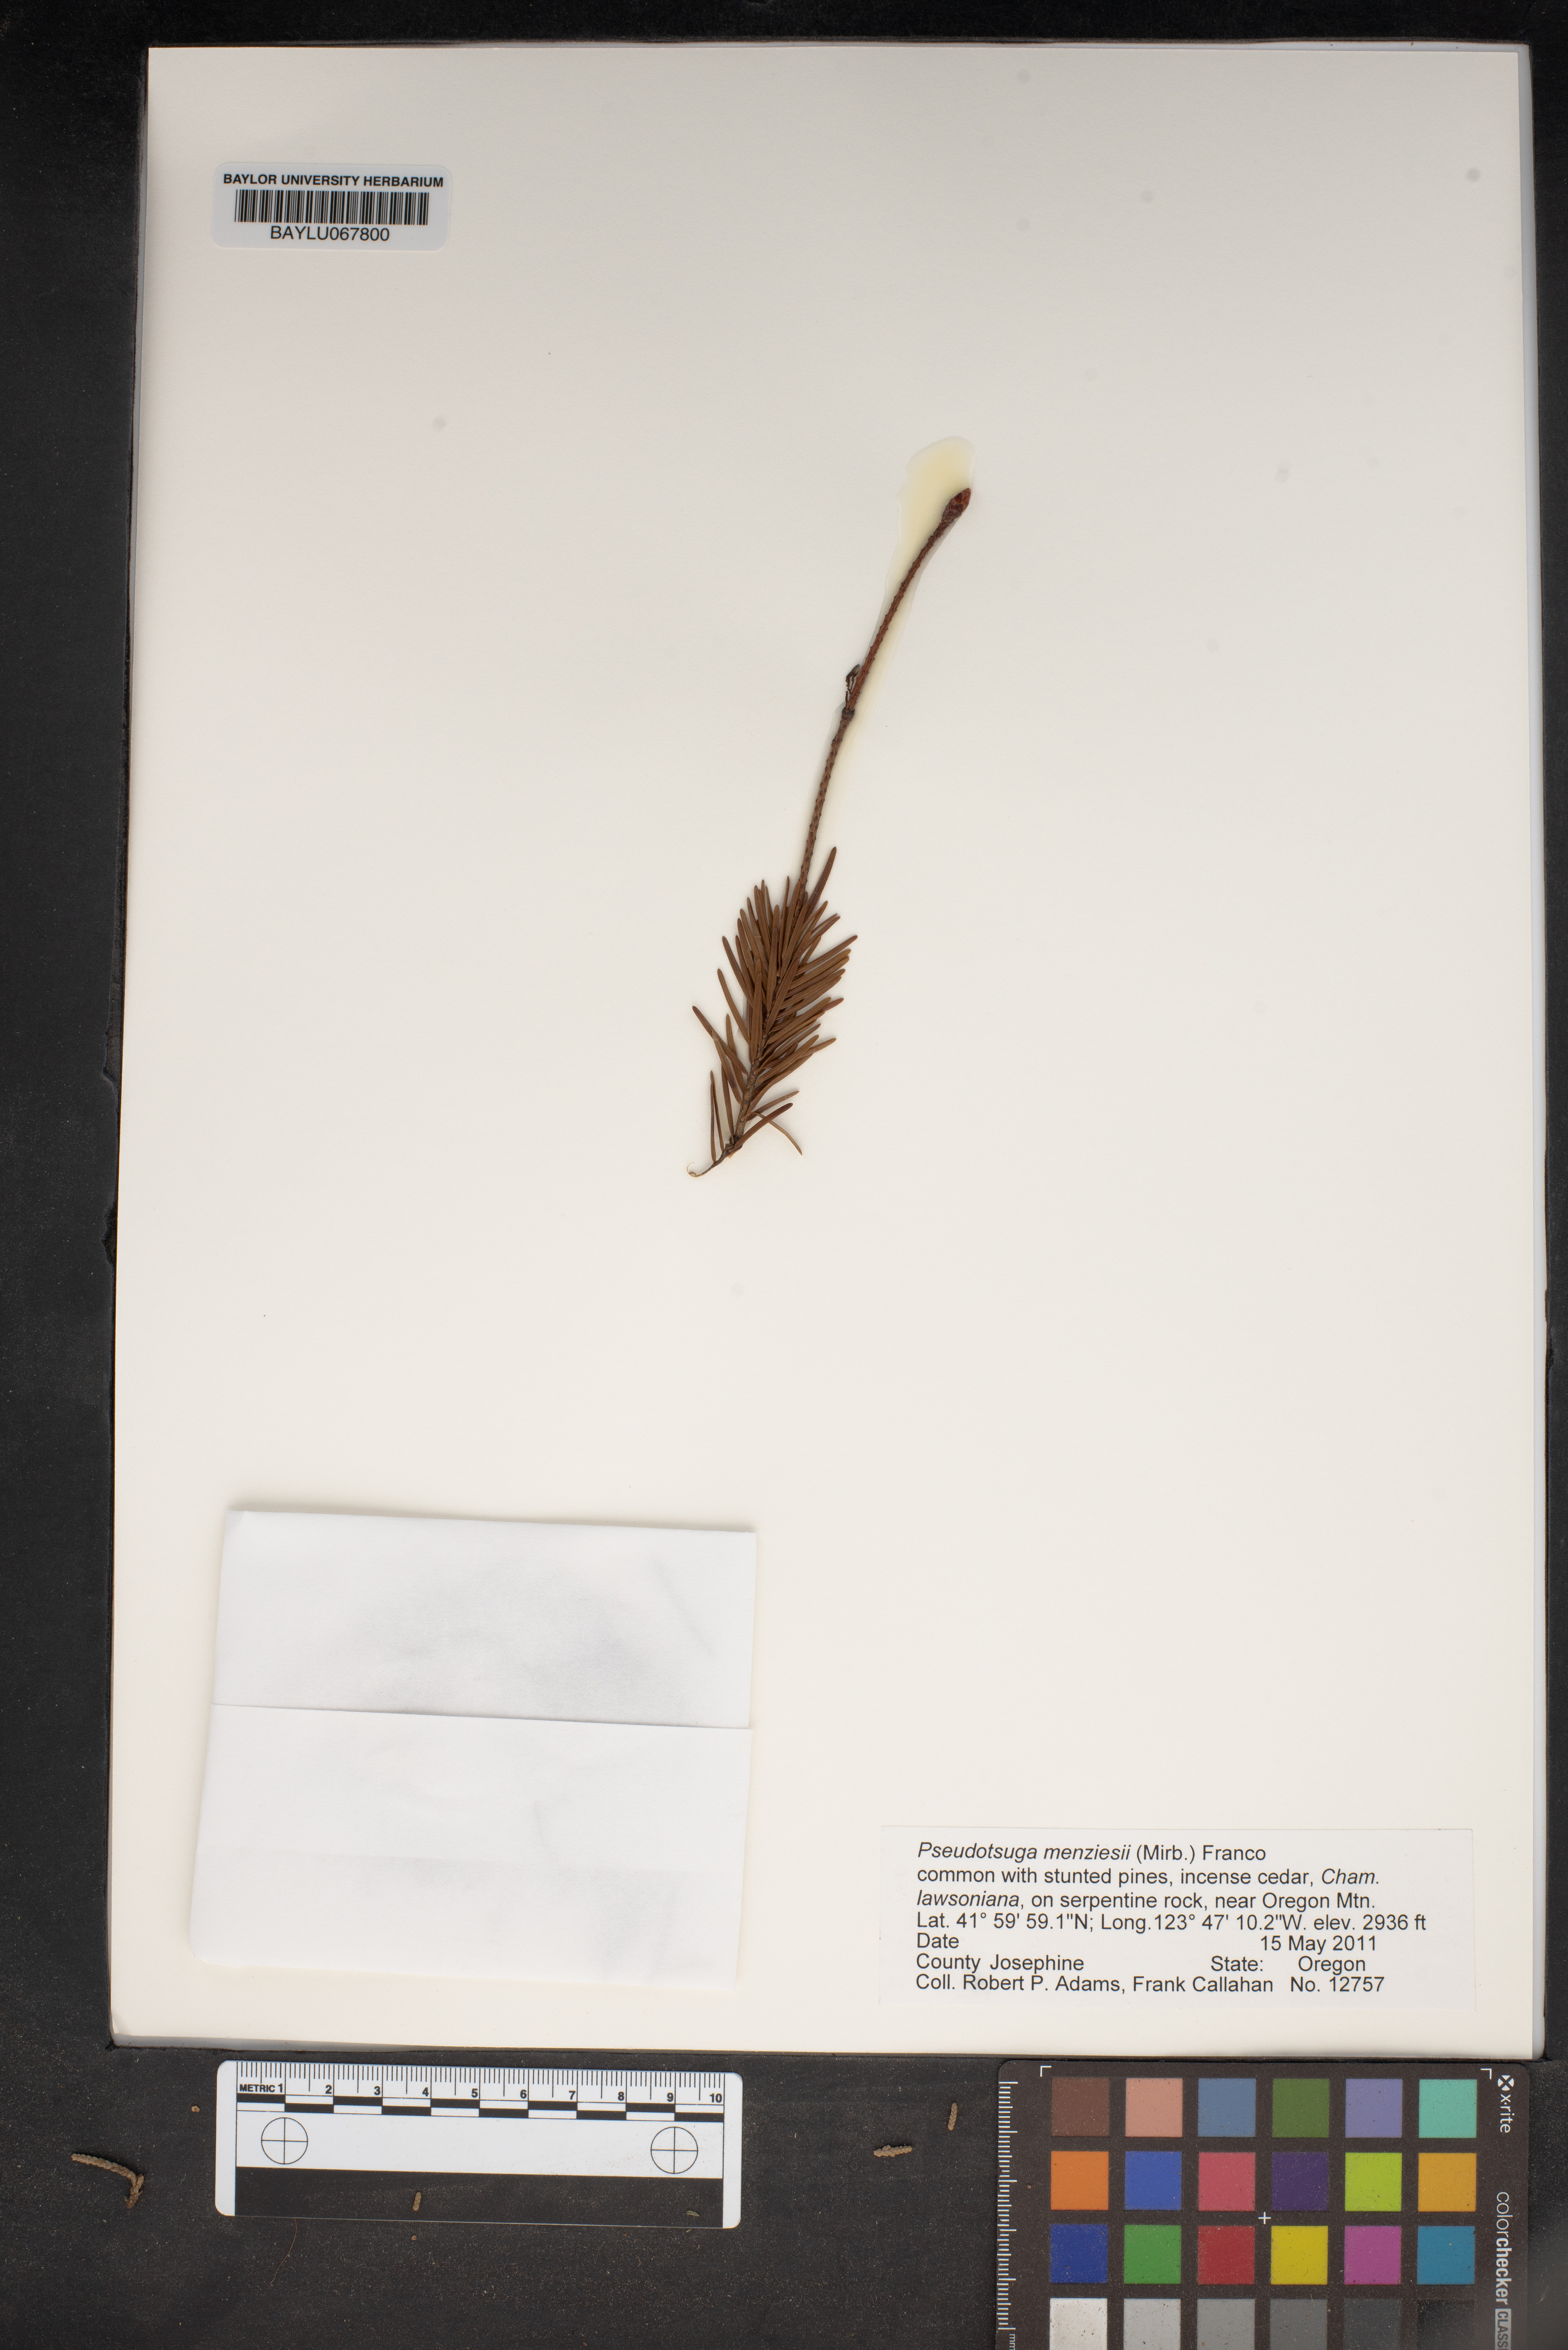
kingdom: Plantae
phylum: Tracheophyta
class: Pinopsida
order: Pinales
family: Pinaceae
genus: Pseudotsuga
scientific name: Pseudotsuga menziesii
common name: Douglas fir
